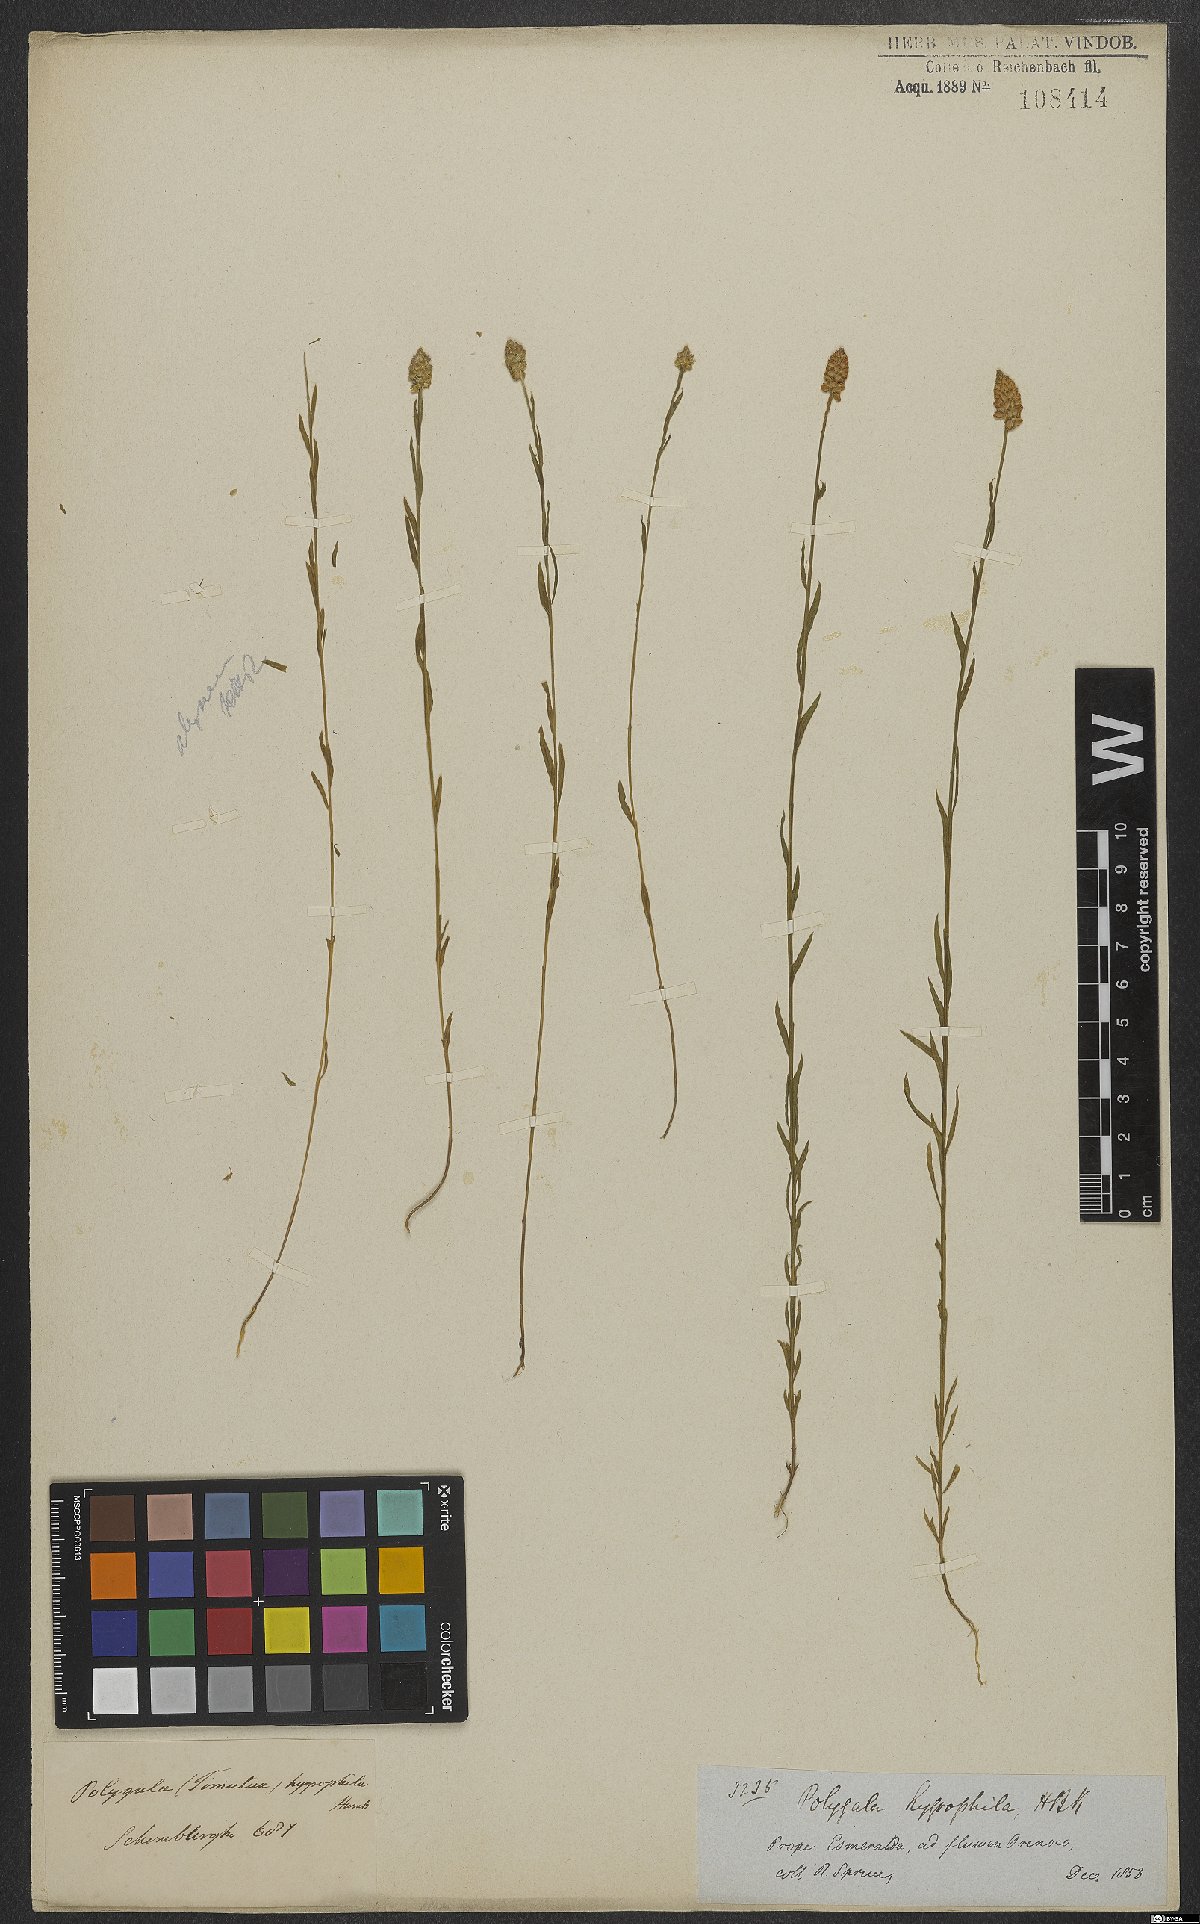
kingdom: Plantae
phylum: Tracheophyta
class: Magnoliopsida
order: Fabales
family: Polygalaceae
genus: Polygala
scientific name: Polygala hygrophila
